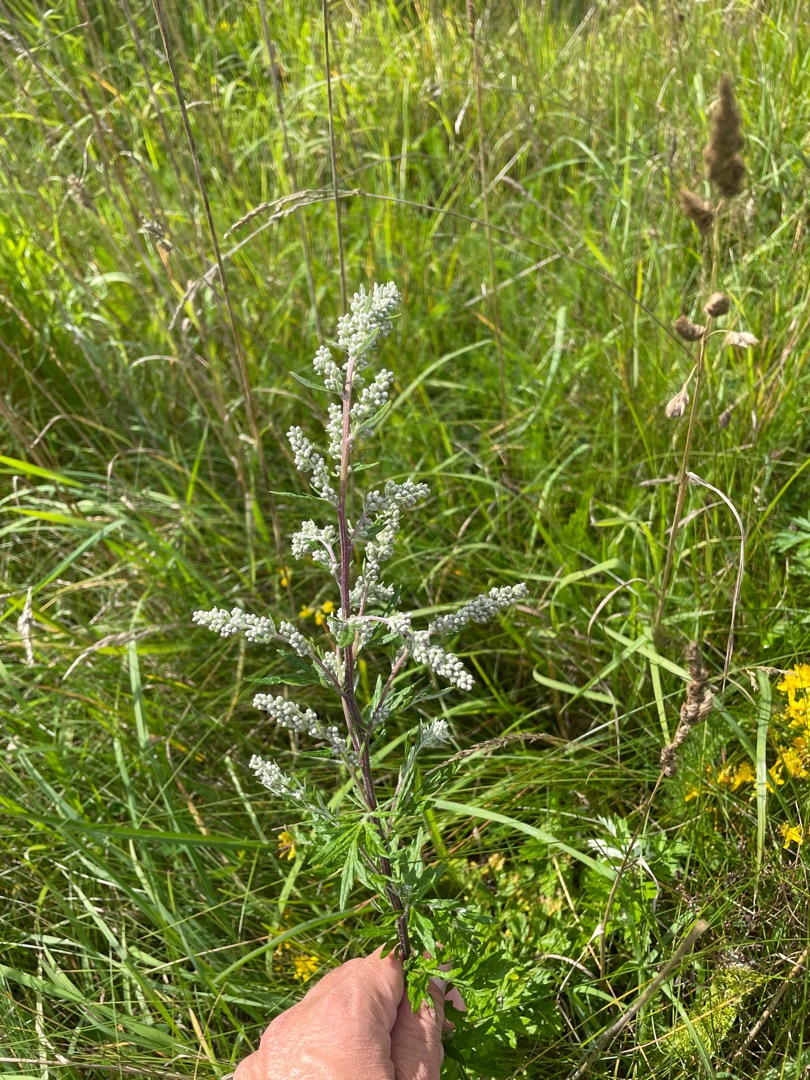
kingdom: Plantae
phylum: Tracheophyta
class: Magnoliopsida
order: Asterales
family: Asteraceae
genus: Artemisia
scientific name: Artemisia vulgaris
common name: Grå-bynke
